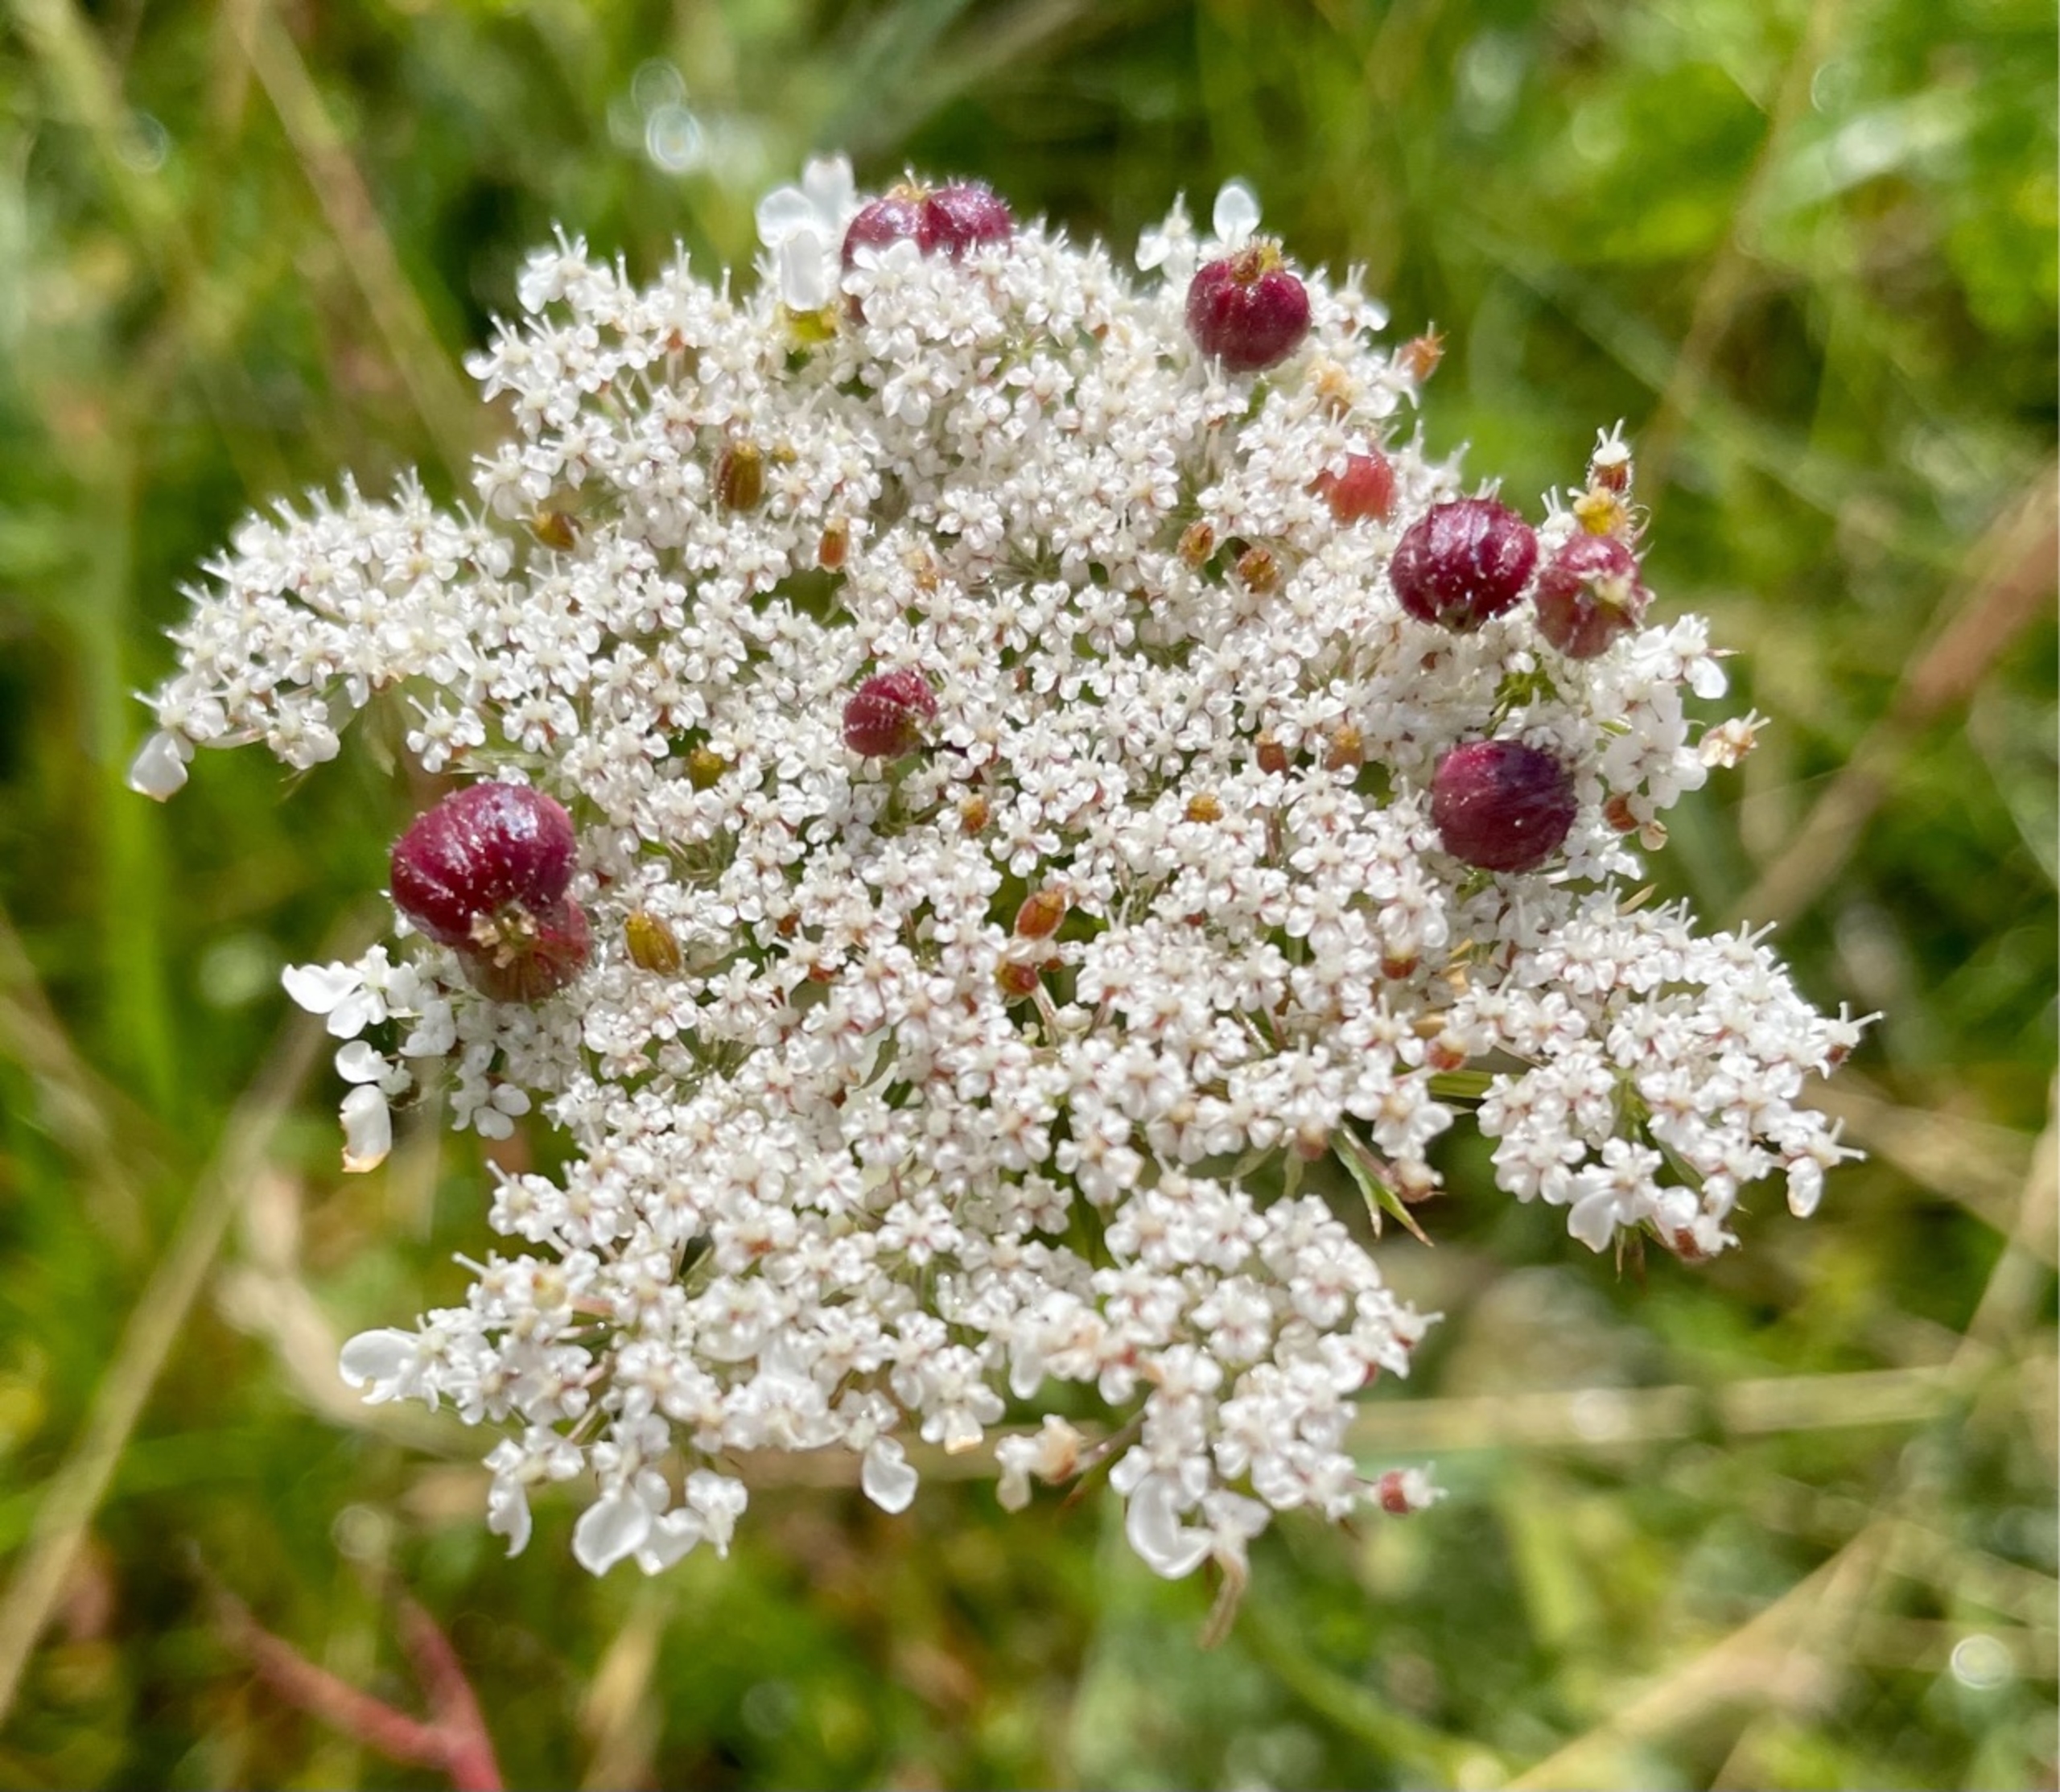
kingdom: Animalia
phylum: Arthropoda
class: Insecta
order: Diptera
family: Cecidomyiidae
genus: Kiefferia
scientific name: Kiefferia pericarpiicola
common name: Gulerodsgalmyg
